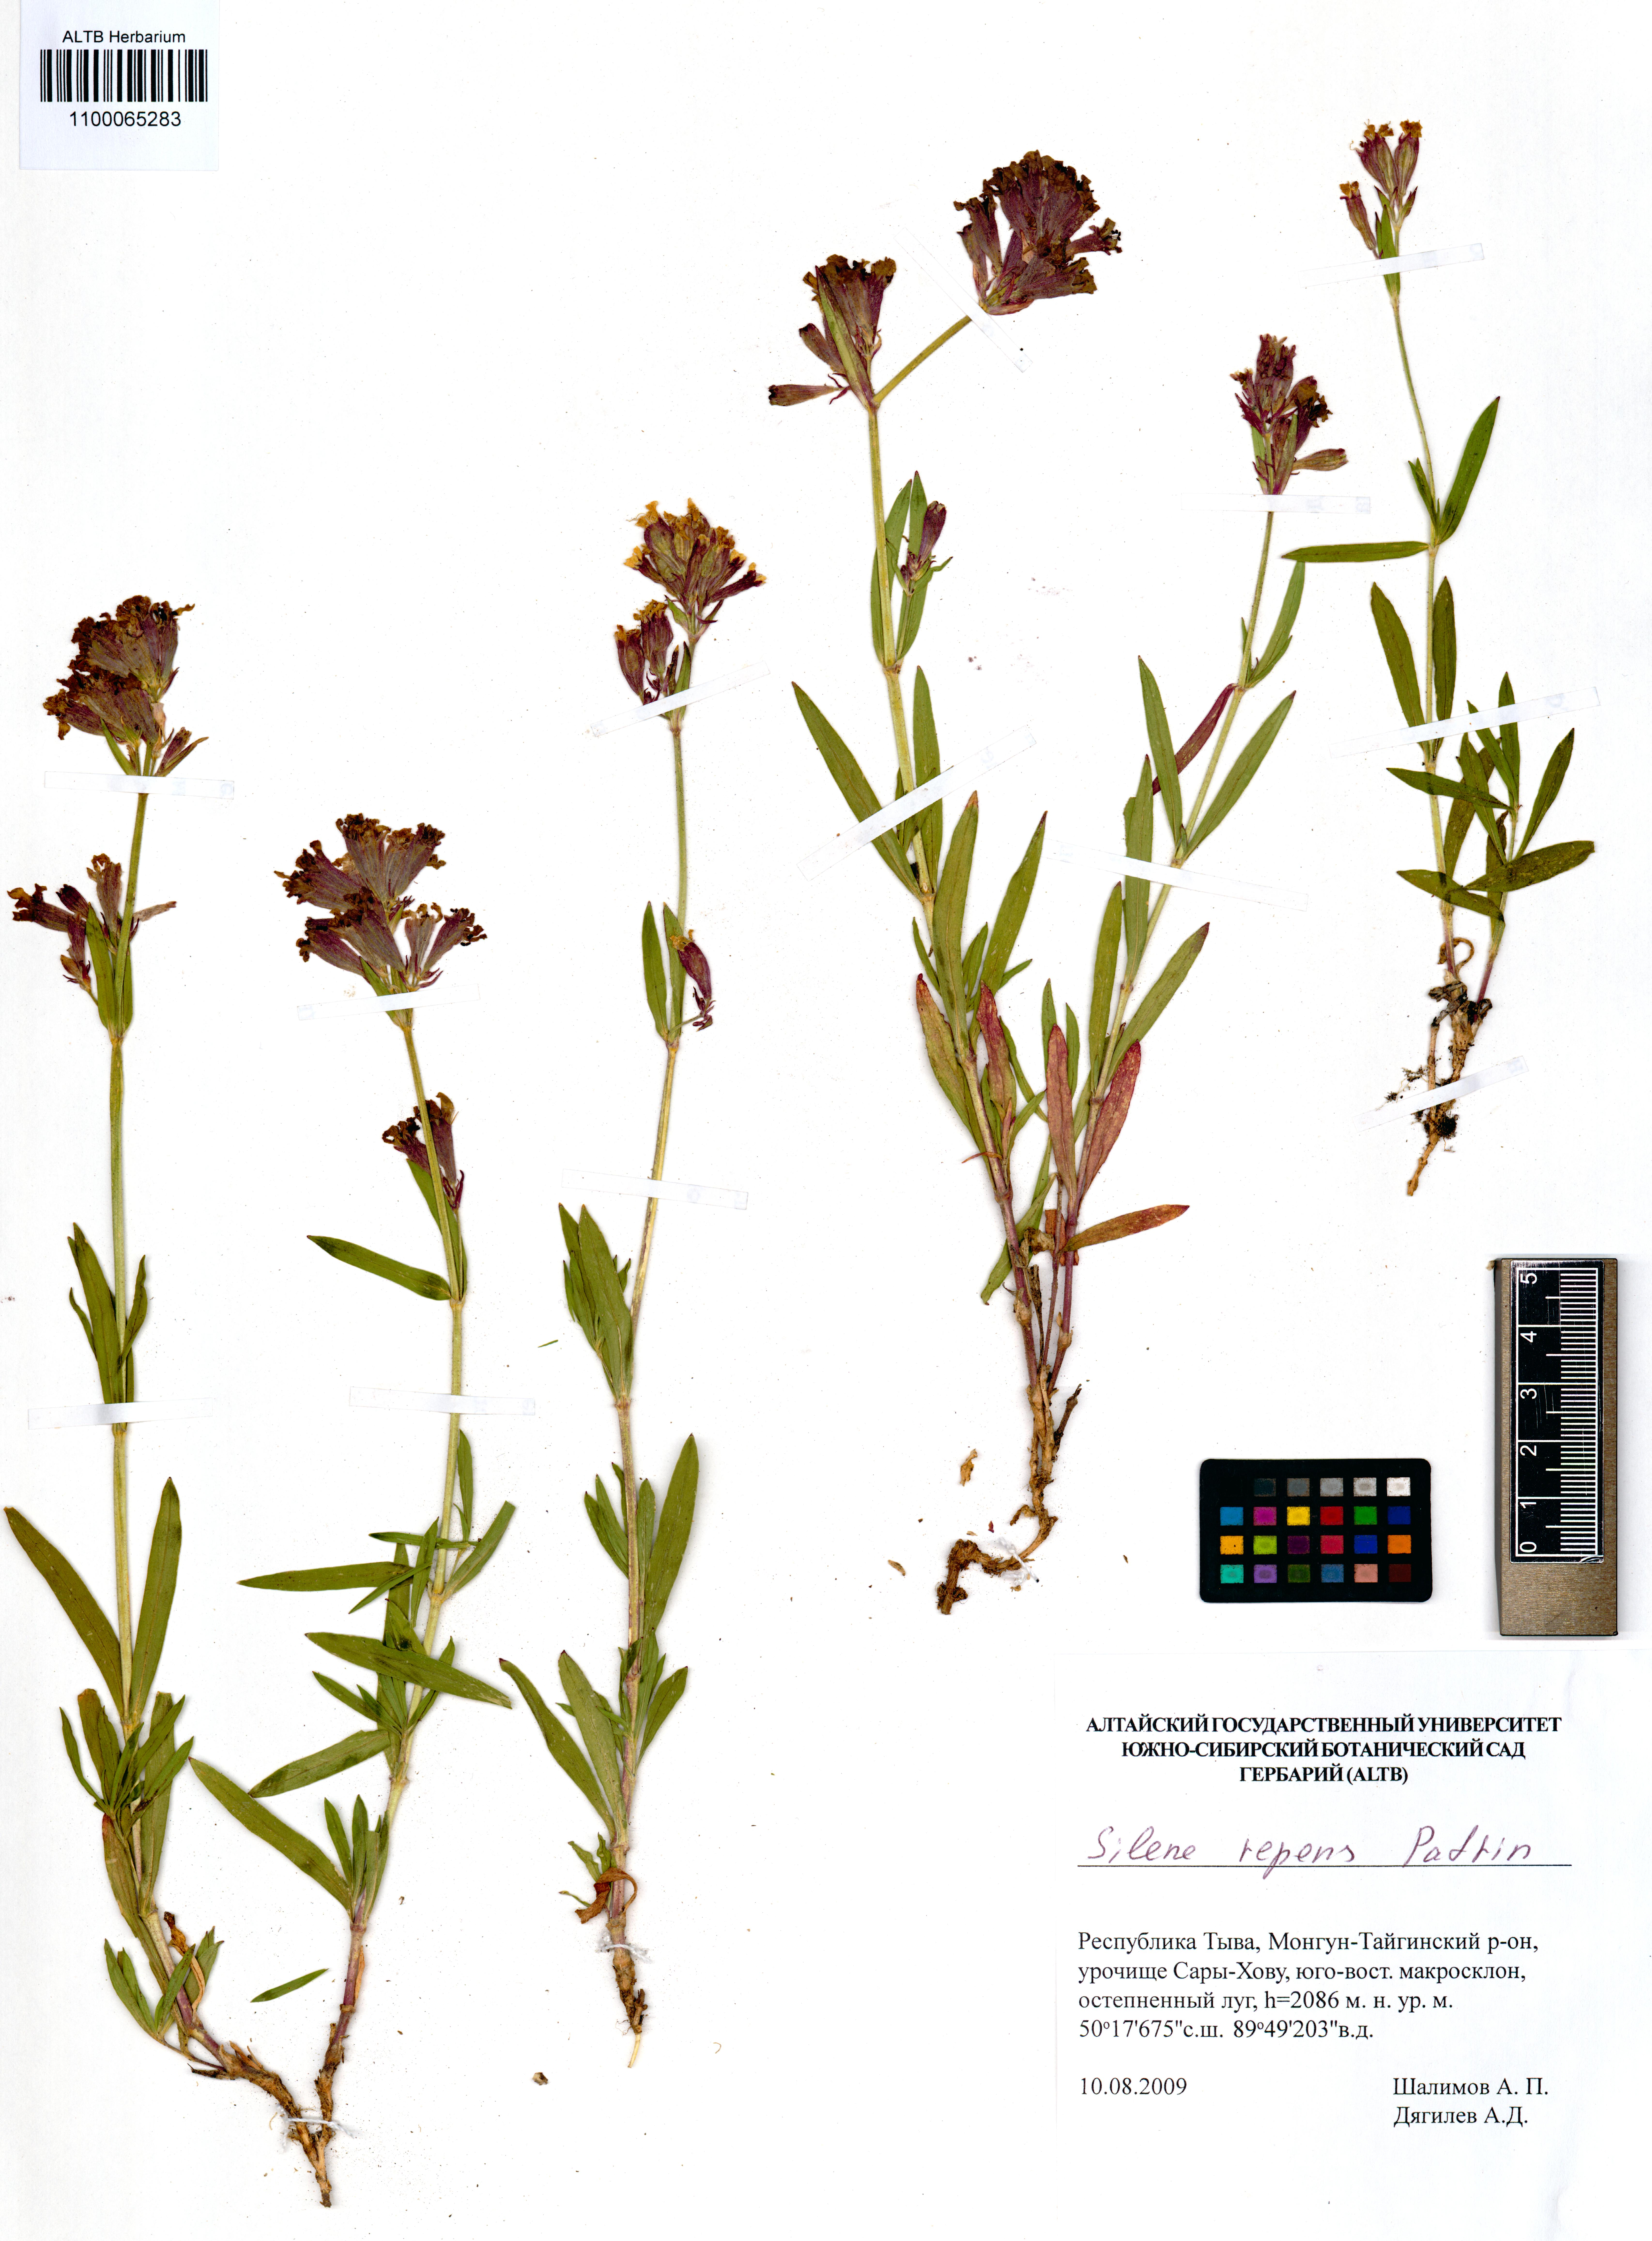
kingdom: Plantae
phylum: Tracheophyta
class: Magnoliopsida
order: Caryophyllales
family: Caryophyllaceae
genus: Silene
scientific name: Silene repens
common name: Pink campion
